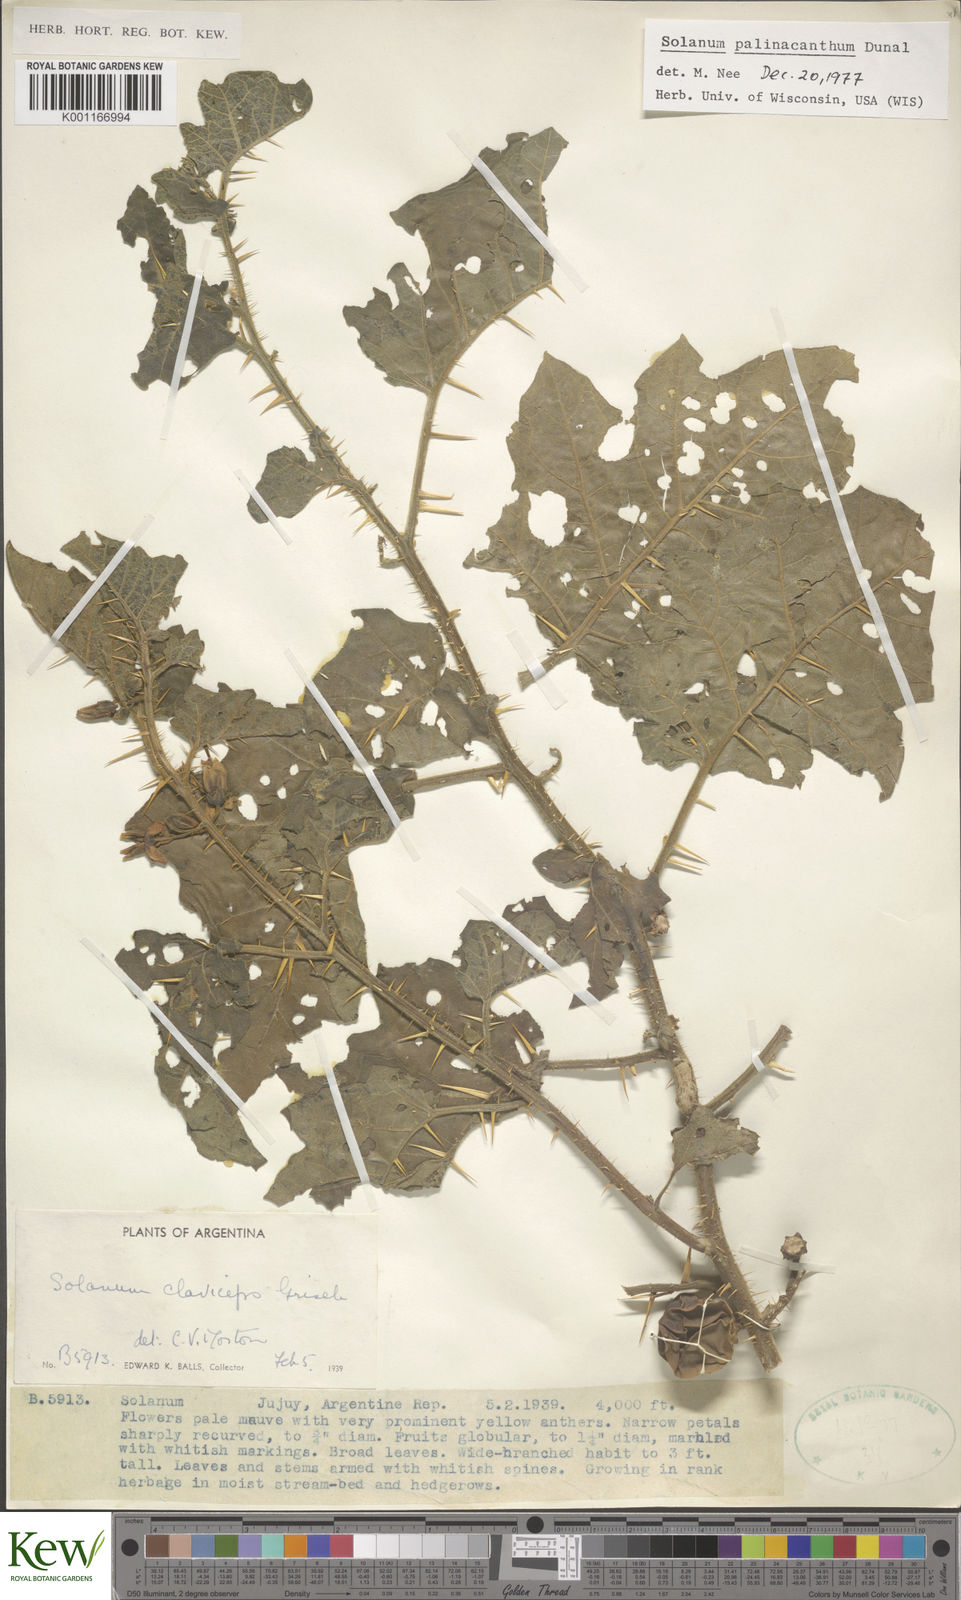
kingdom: Plantae
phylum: Tracheophyta
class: Magnoliopsida
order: Solanales
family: Solanaceae
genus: Solanum
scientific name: Solanum palinacanthum
